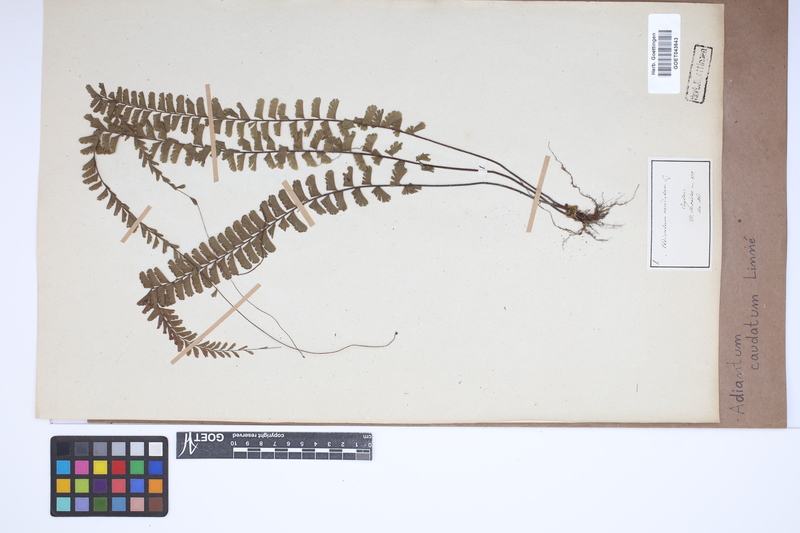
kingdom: Plantae
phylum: Tracheophyta
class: Polypodiopsida
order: Polypodiales
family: Pteridaceae
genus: Adiantum
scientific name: Adiantum caudatum
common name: Tailed maidenhair
